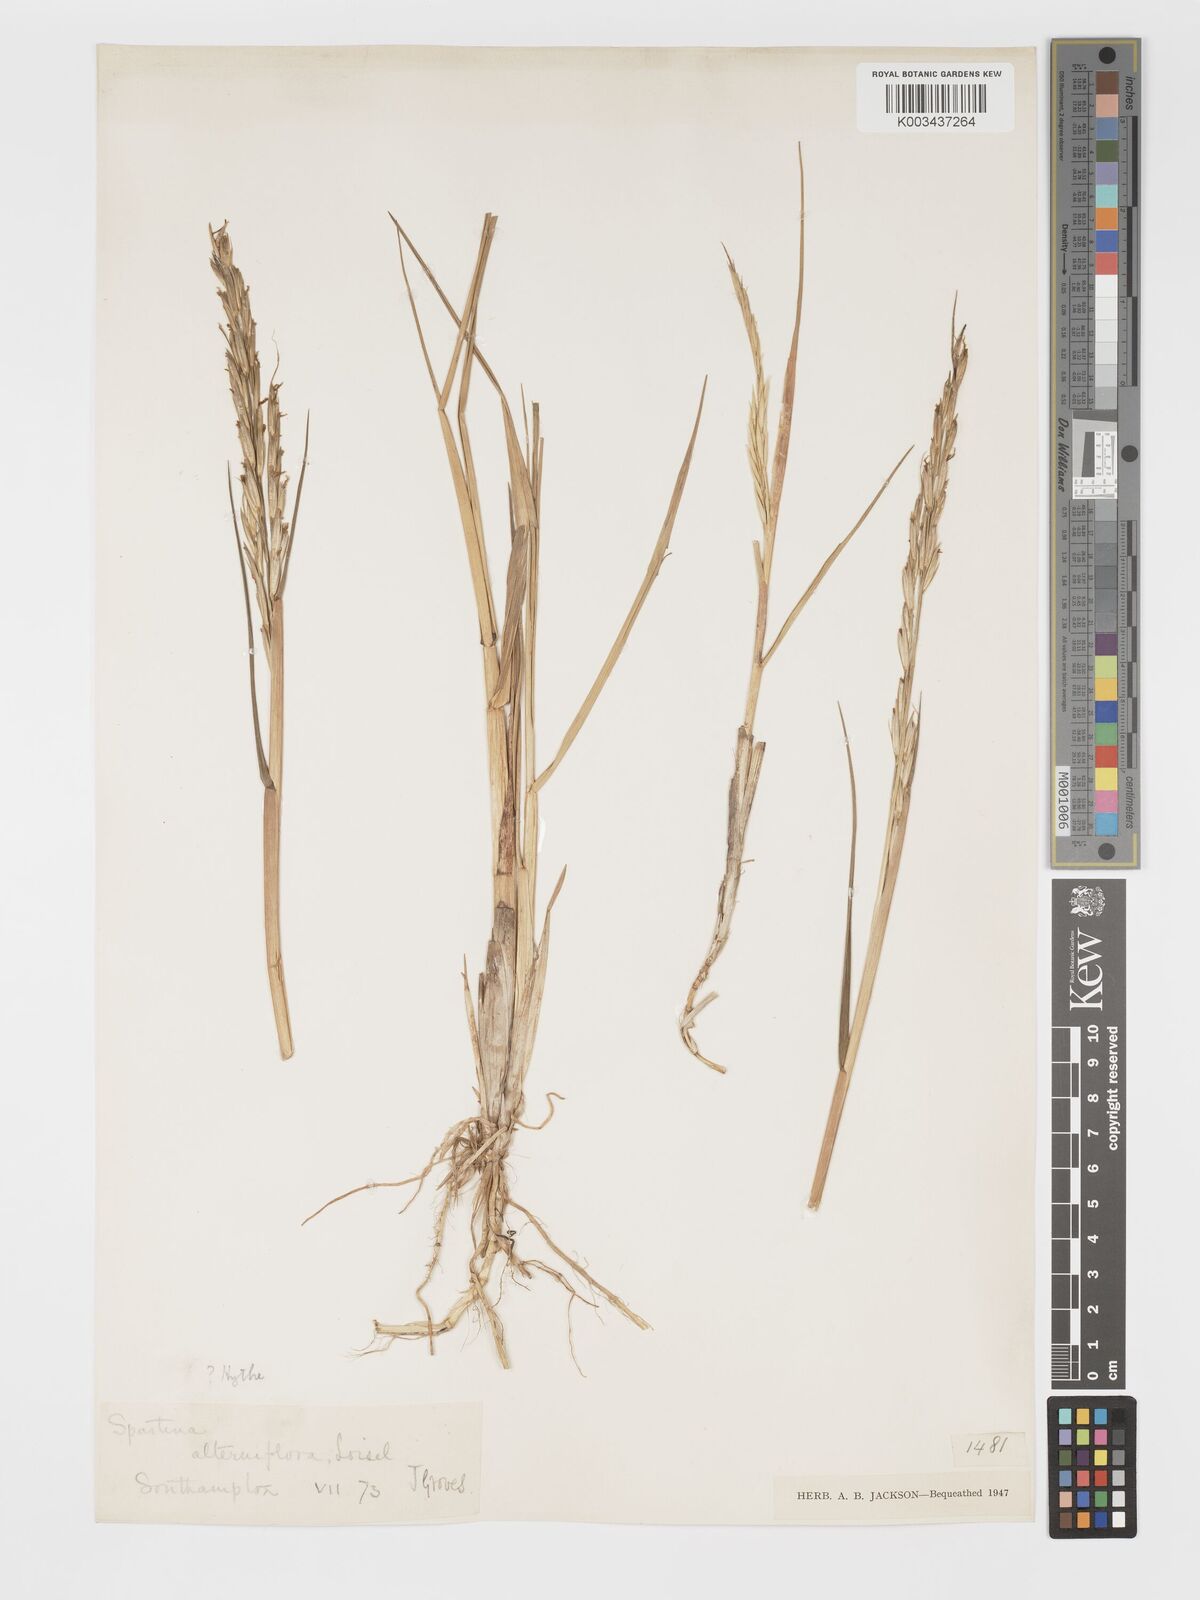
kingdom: Plantae
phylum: Tracheophyta
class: Liliopsida
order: Poales
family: Poaceae
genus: Sporobolus
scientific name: Sporobolus townsendii
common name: Townsend's cordgrass
